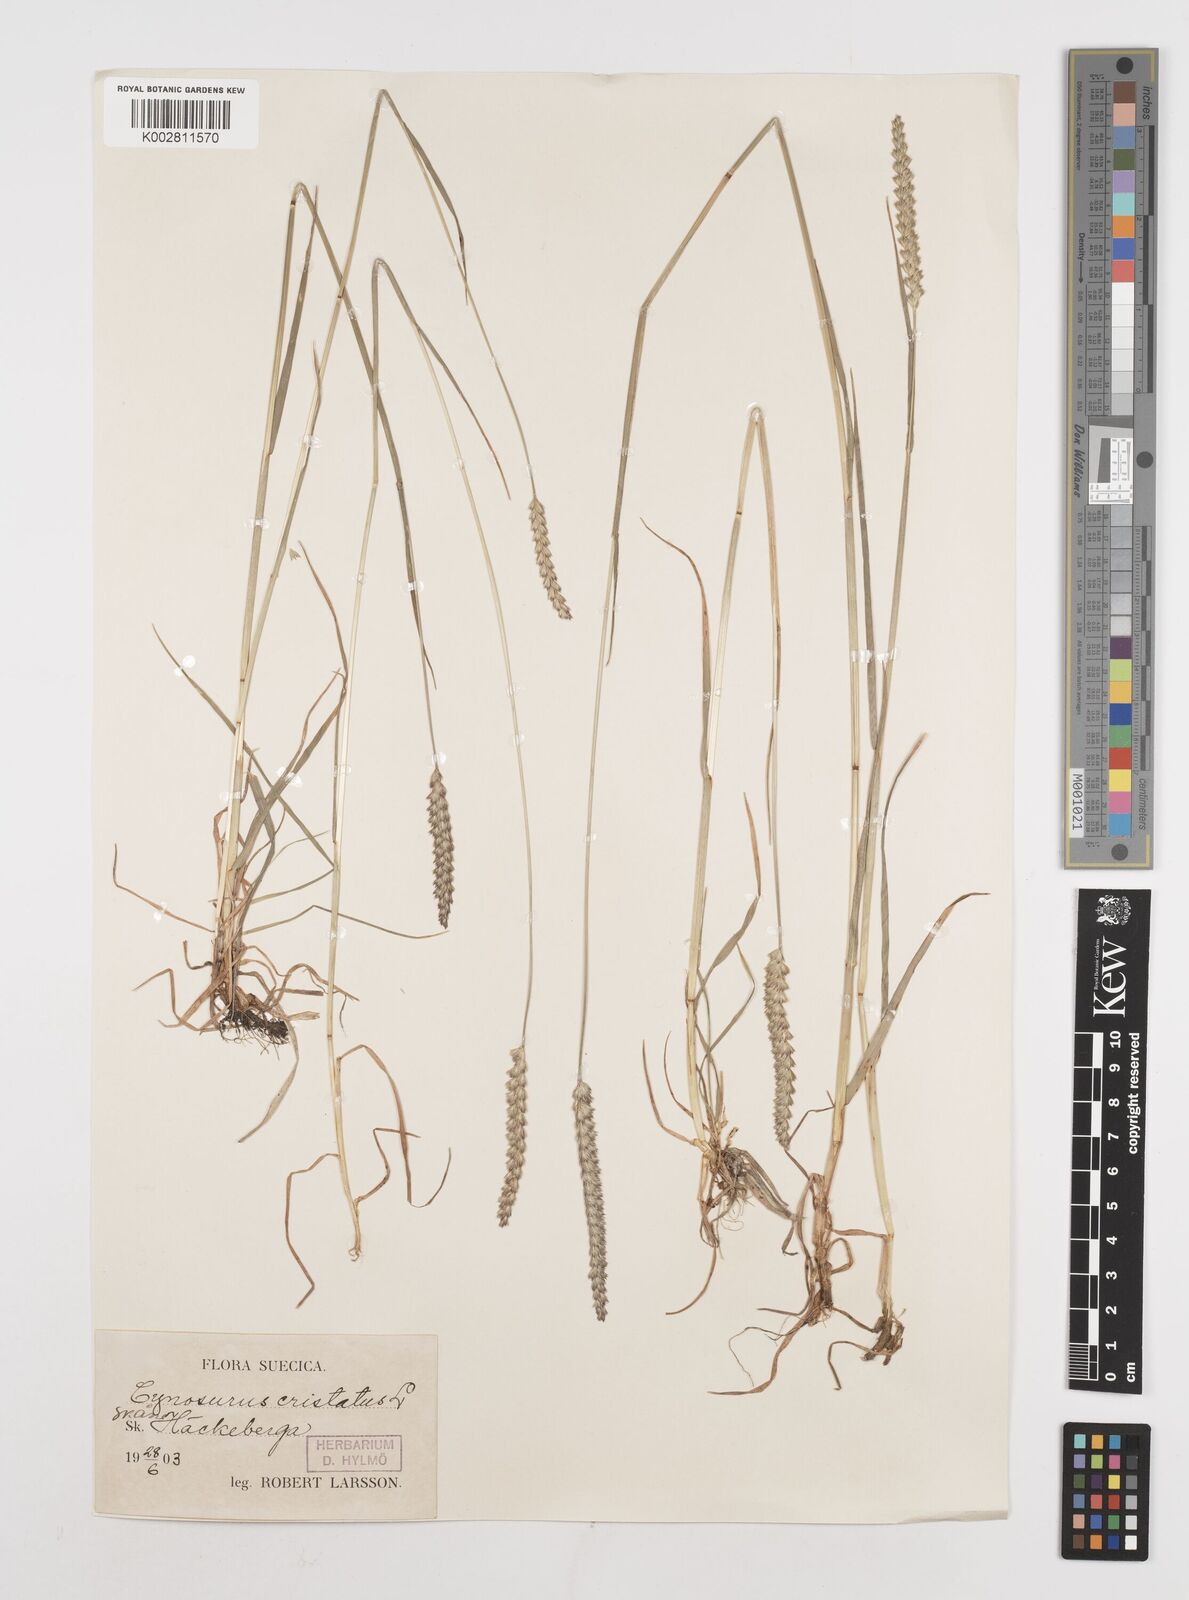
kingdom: Plantae
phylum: Tracheophyta
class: Liliopsida
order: Poales
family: Poaceae
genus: Cynosurus
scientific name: Cynosurus cristatus
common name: Crested dog's-tail
